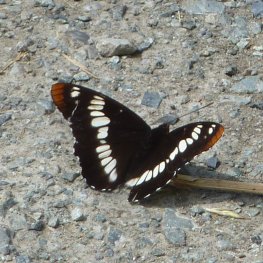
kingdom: Animalia
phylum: Arthropoda
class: Insecta
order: Lepidoptera
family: Nymphalidae
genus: Limenitis
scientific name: Limenitis lorquini
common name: Lorquin's Admiral
